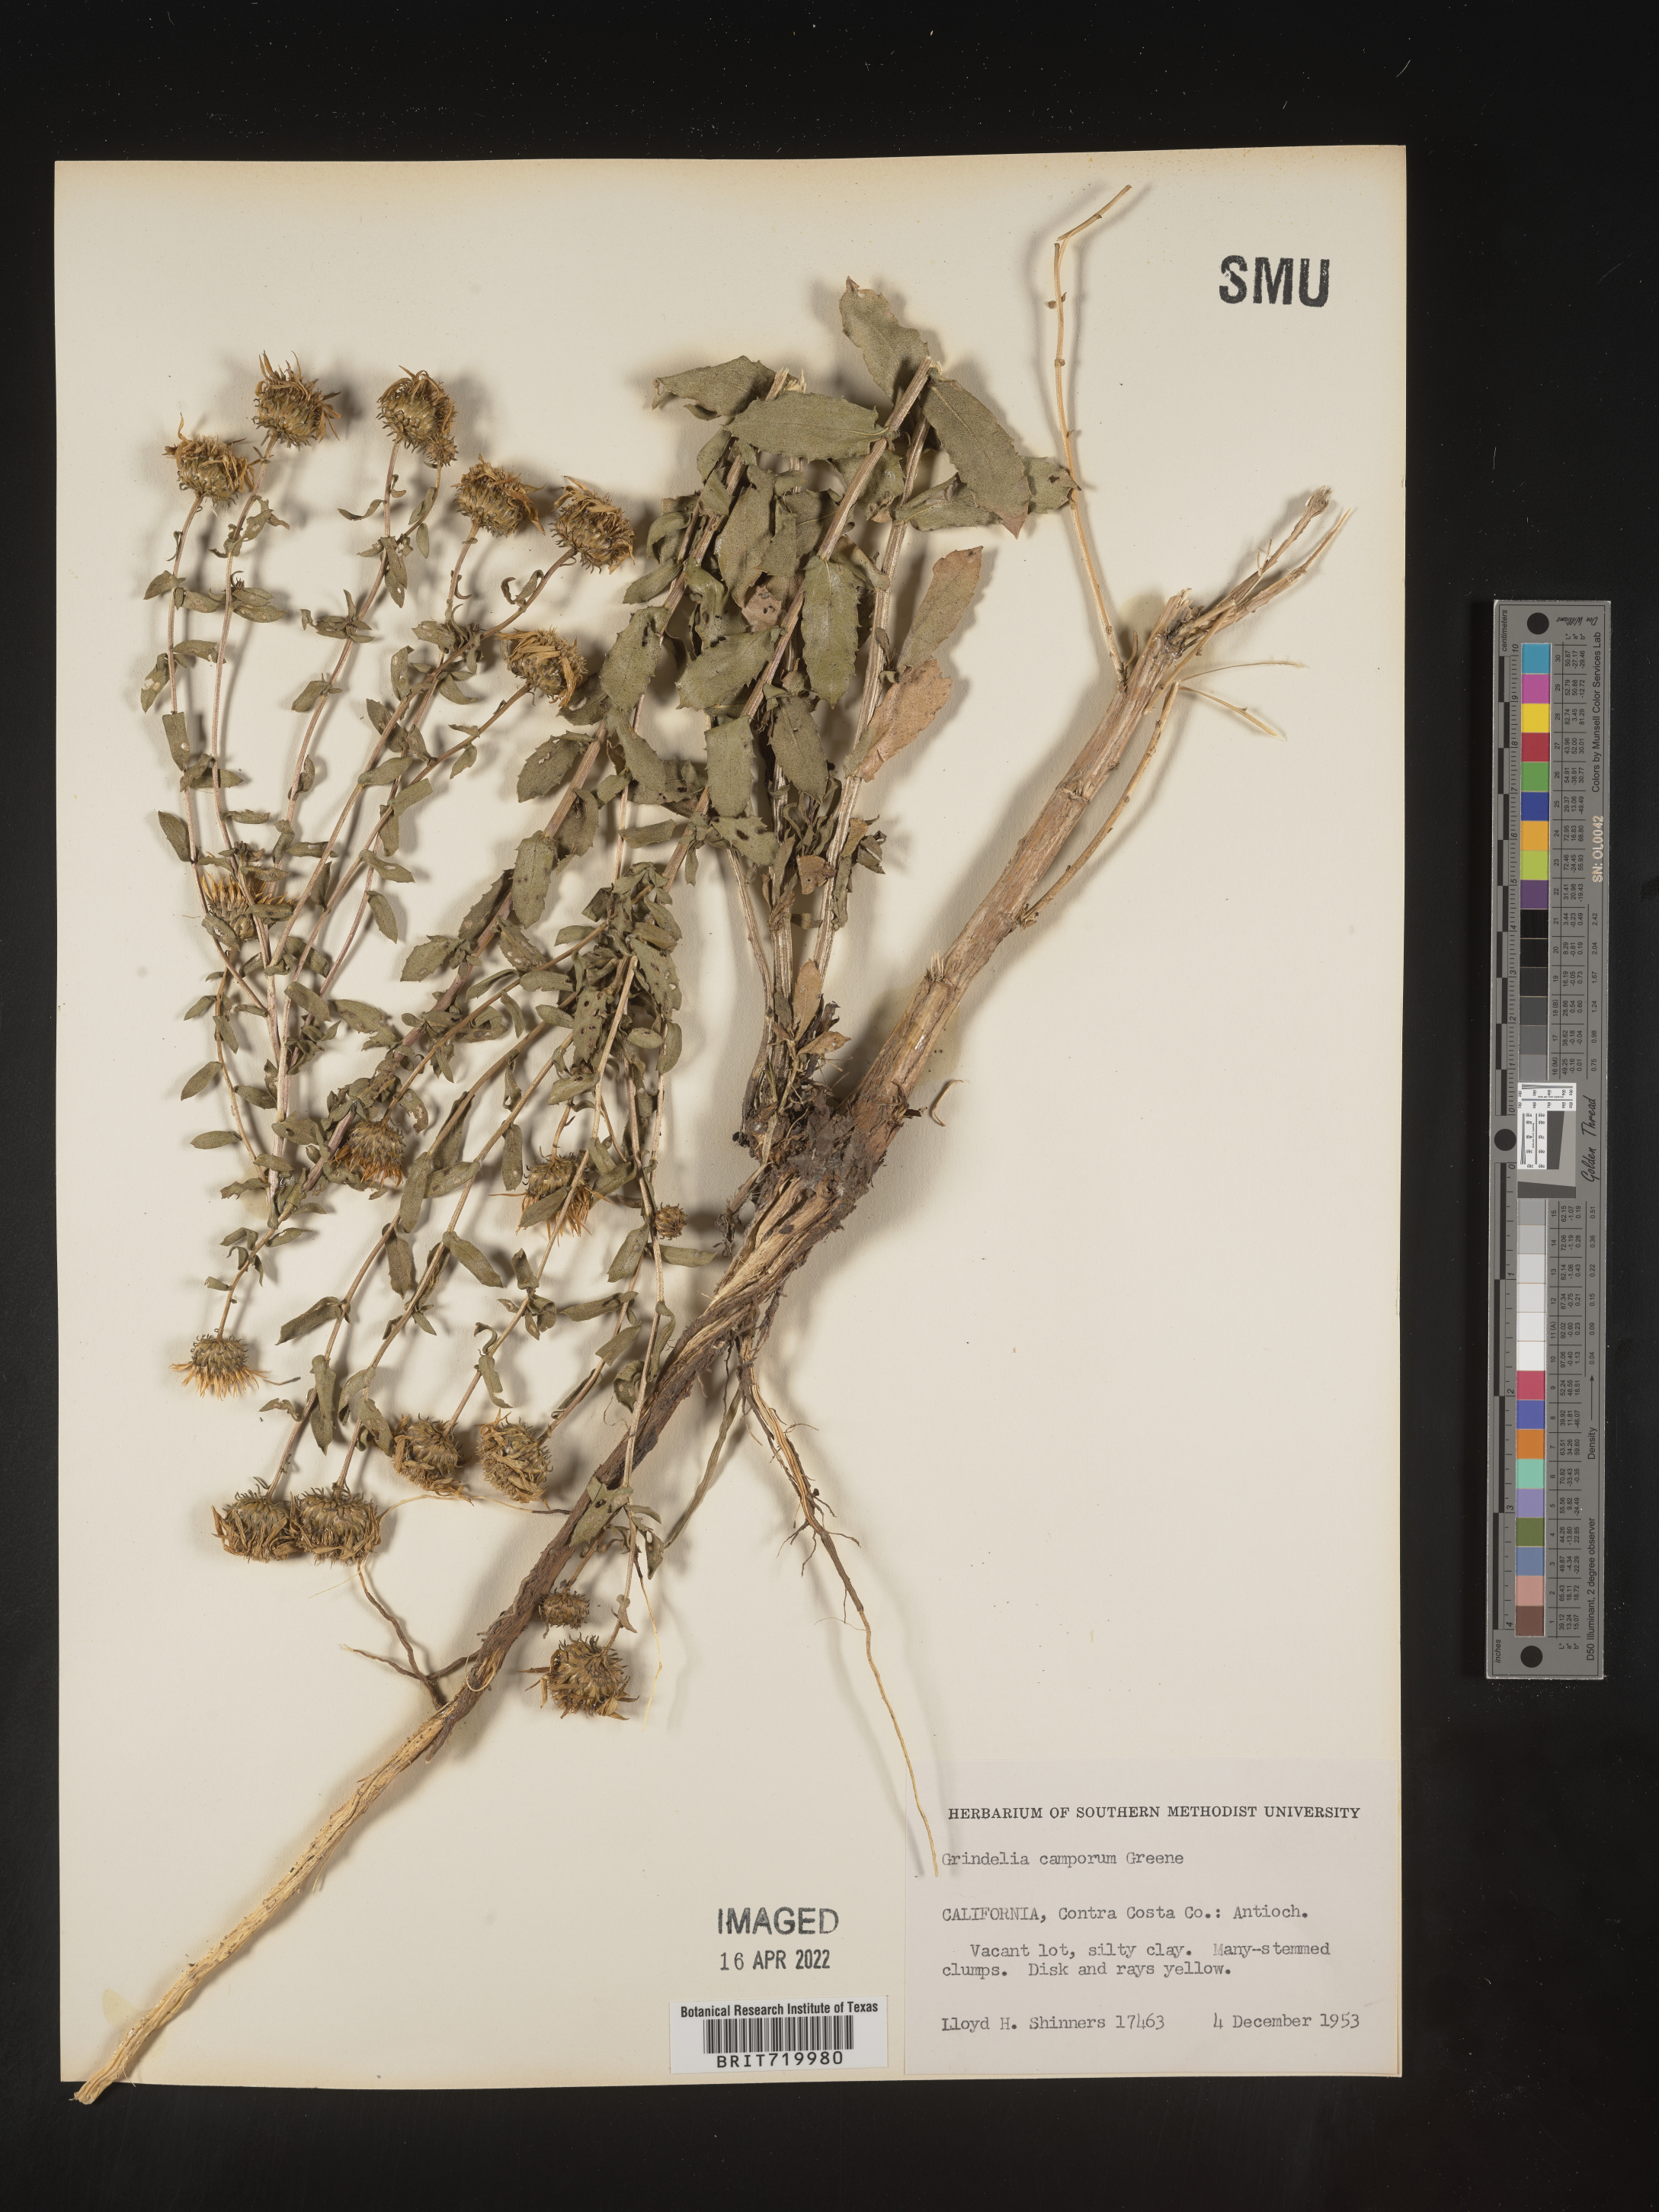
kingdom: Plantae
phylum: Tracheophyta
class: Magnoliopsida
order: Asterales
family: Asteraceae
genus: Grindelia
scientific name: Grindelia hirsutula
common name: Hairy gumweed
